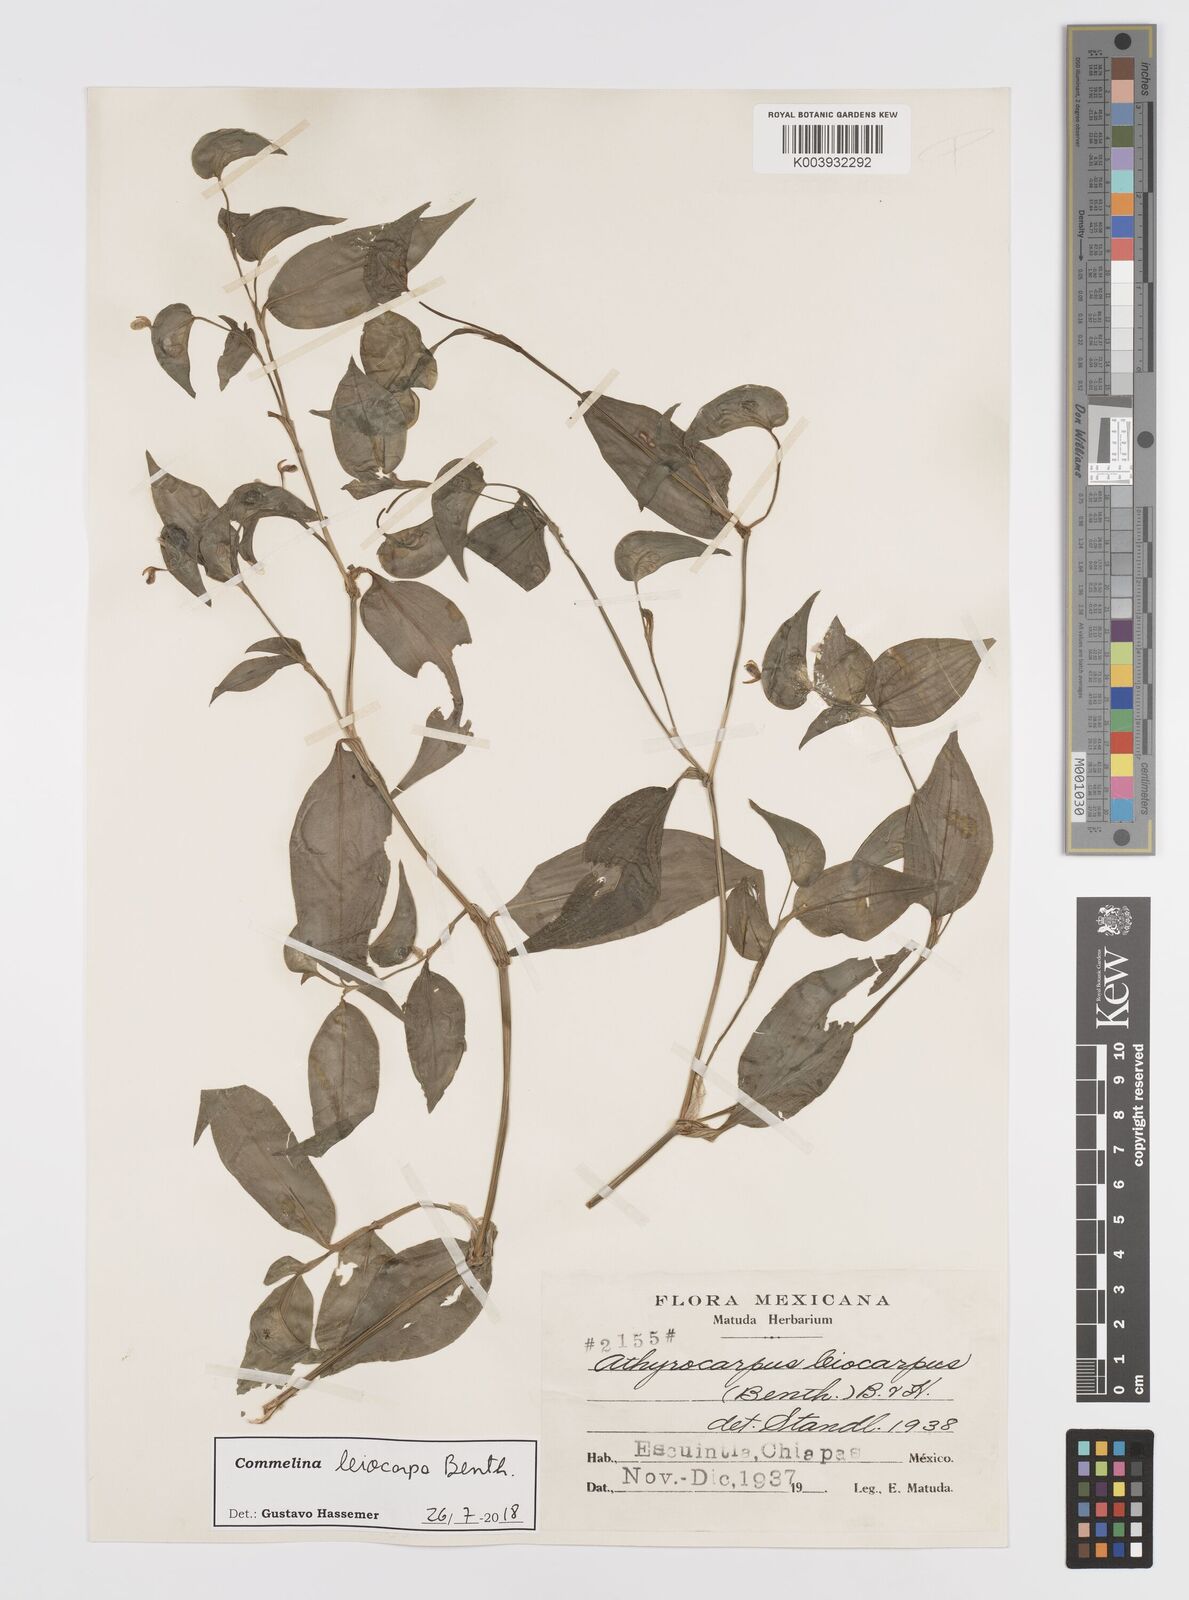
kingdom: Plantae
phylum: Tracheophyta
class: Liliopsida
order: Commelinales
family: Commelinaceae
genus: Commelina
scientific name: Commelina leiocarpa
